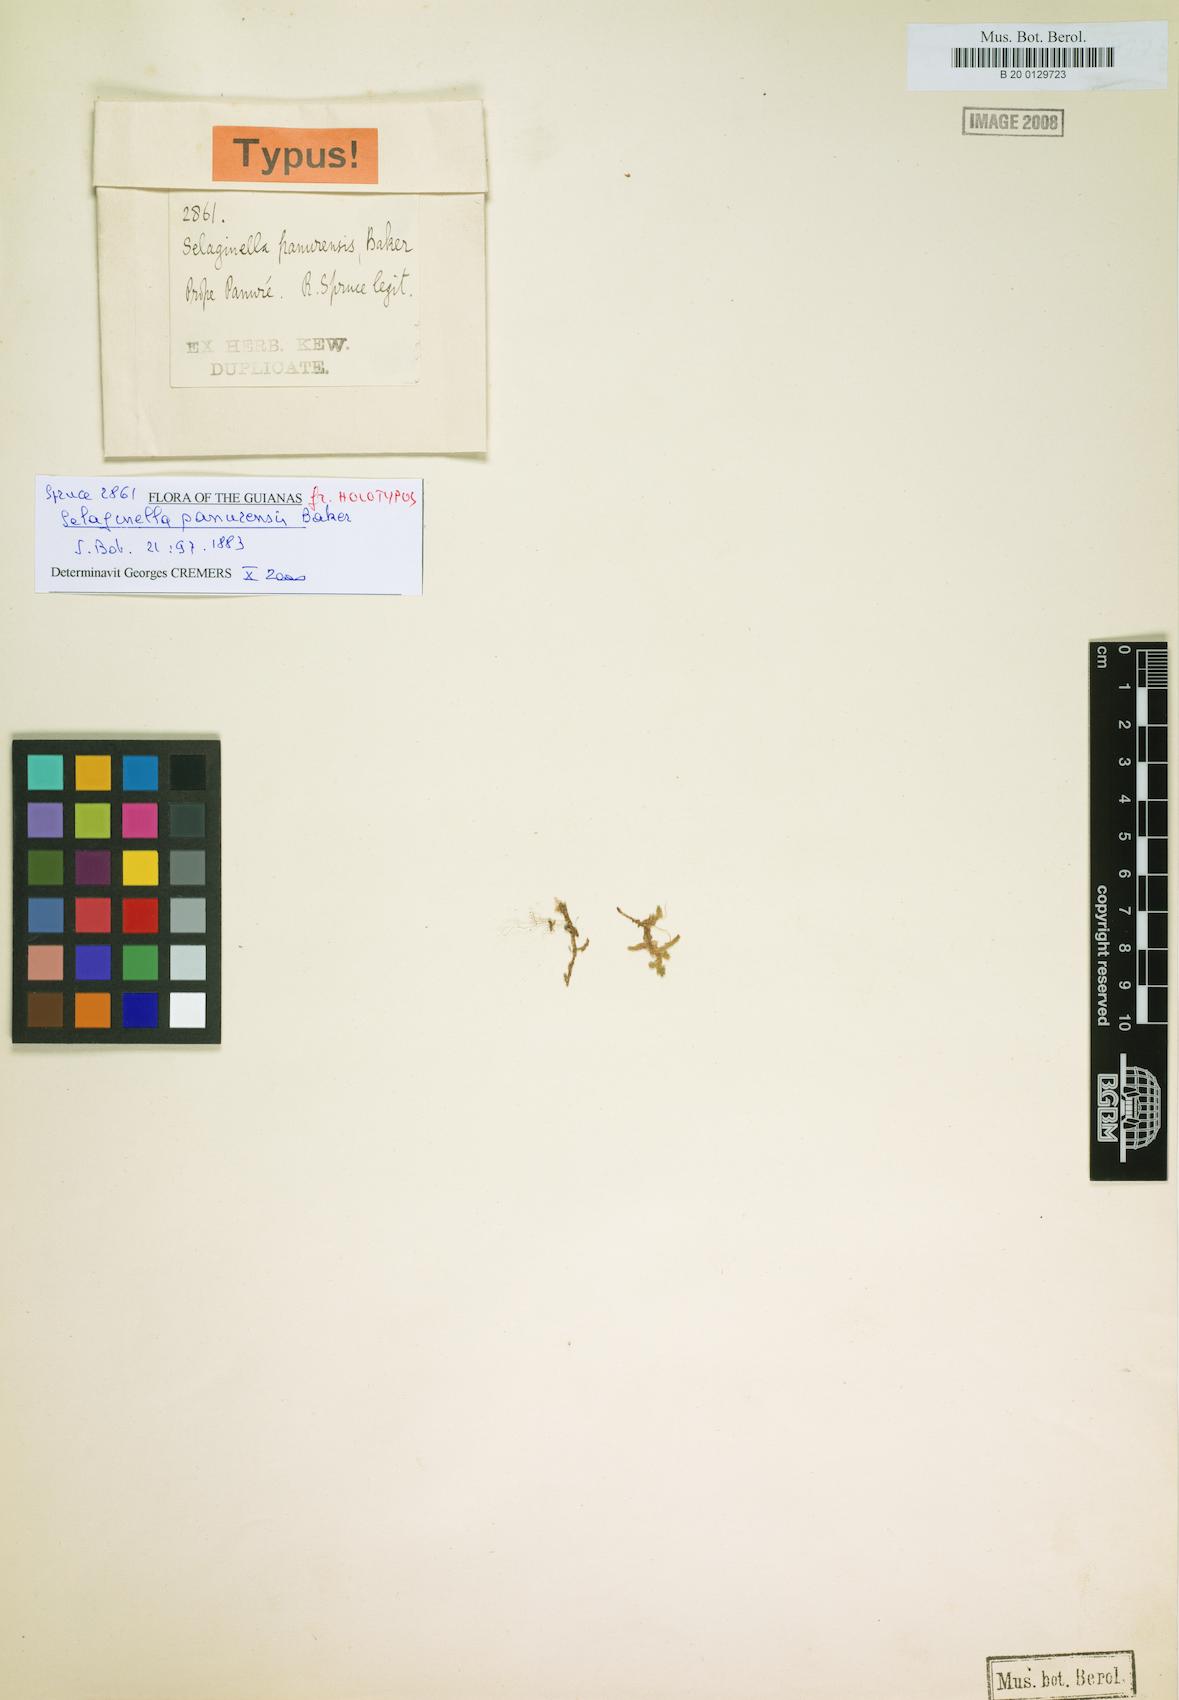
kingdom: Plantae
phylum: Tracheophyta
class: Lycopodiopsida
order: Selaginellales
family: Selaginellaceae
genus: Selaginella
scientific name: Selaginella panurensis
